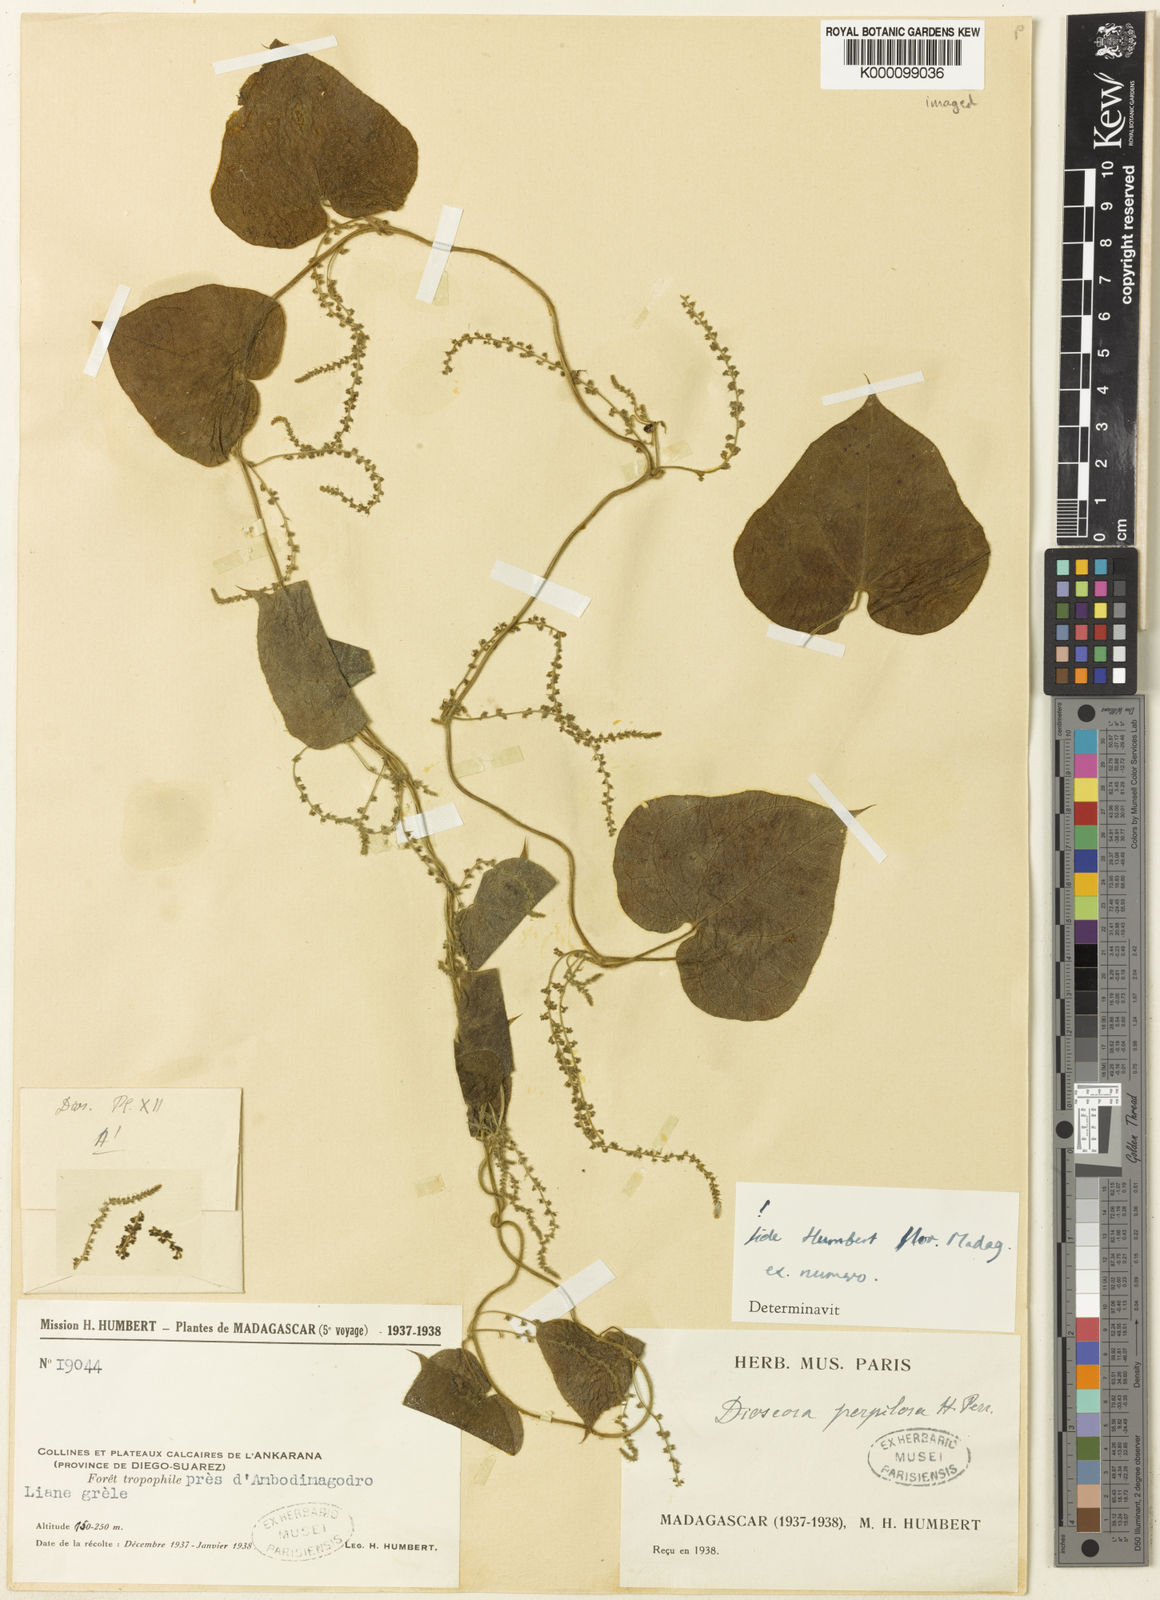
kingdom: Plantae
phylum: Tracheophyta
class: Liliopsida
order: Dioscoreales
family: Dioscoreaceae
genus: Dioscorea
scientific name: Dioscorea mamillata
